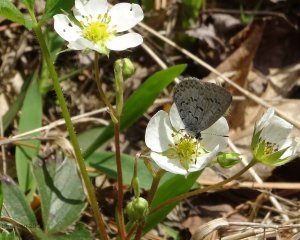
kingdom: Animalia
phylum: Arthropoda
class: Insecta
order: Lepidoptera
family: Lycaenidae
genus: Celastrina
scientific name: Celastrina lucia
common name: Northern Spring Azure
